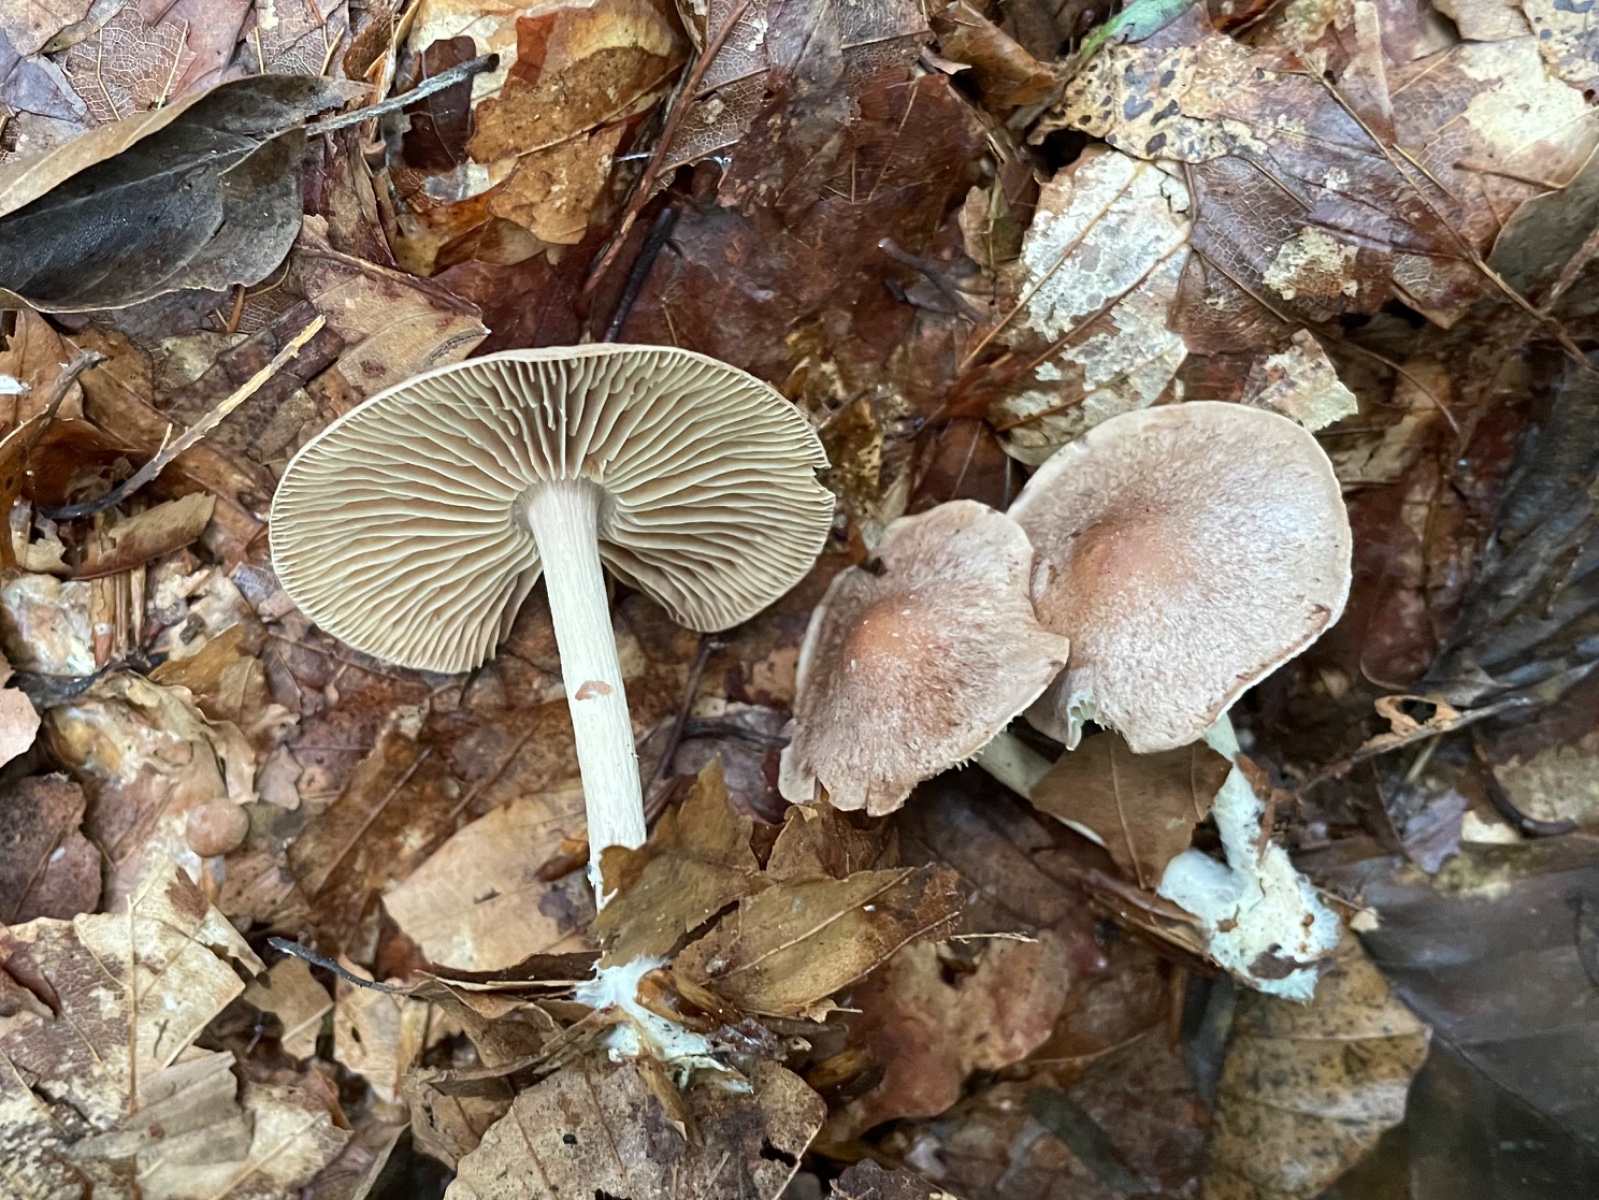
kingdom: Fungi
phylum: Basidiomycota
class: Agaricomycetes
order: Agaricales
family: Omphalotaceae
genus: Collybiopsis
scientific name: Collybiopsis peronata
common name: bestøvlet fladhat
